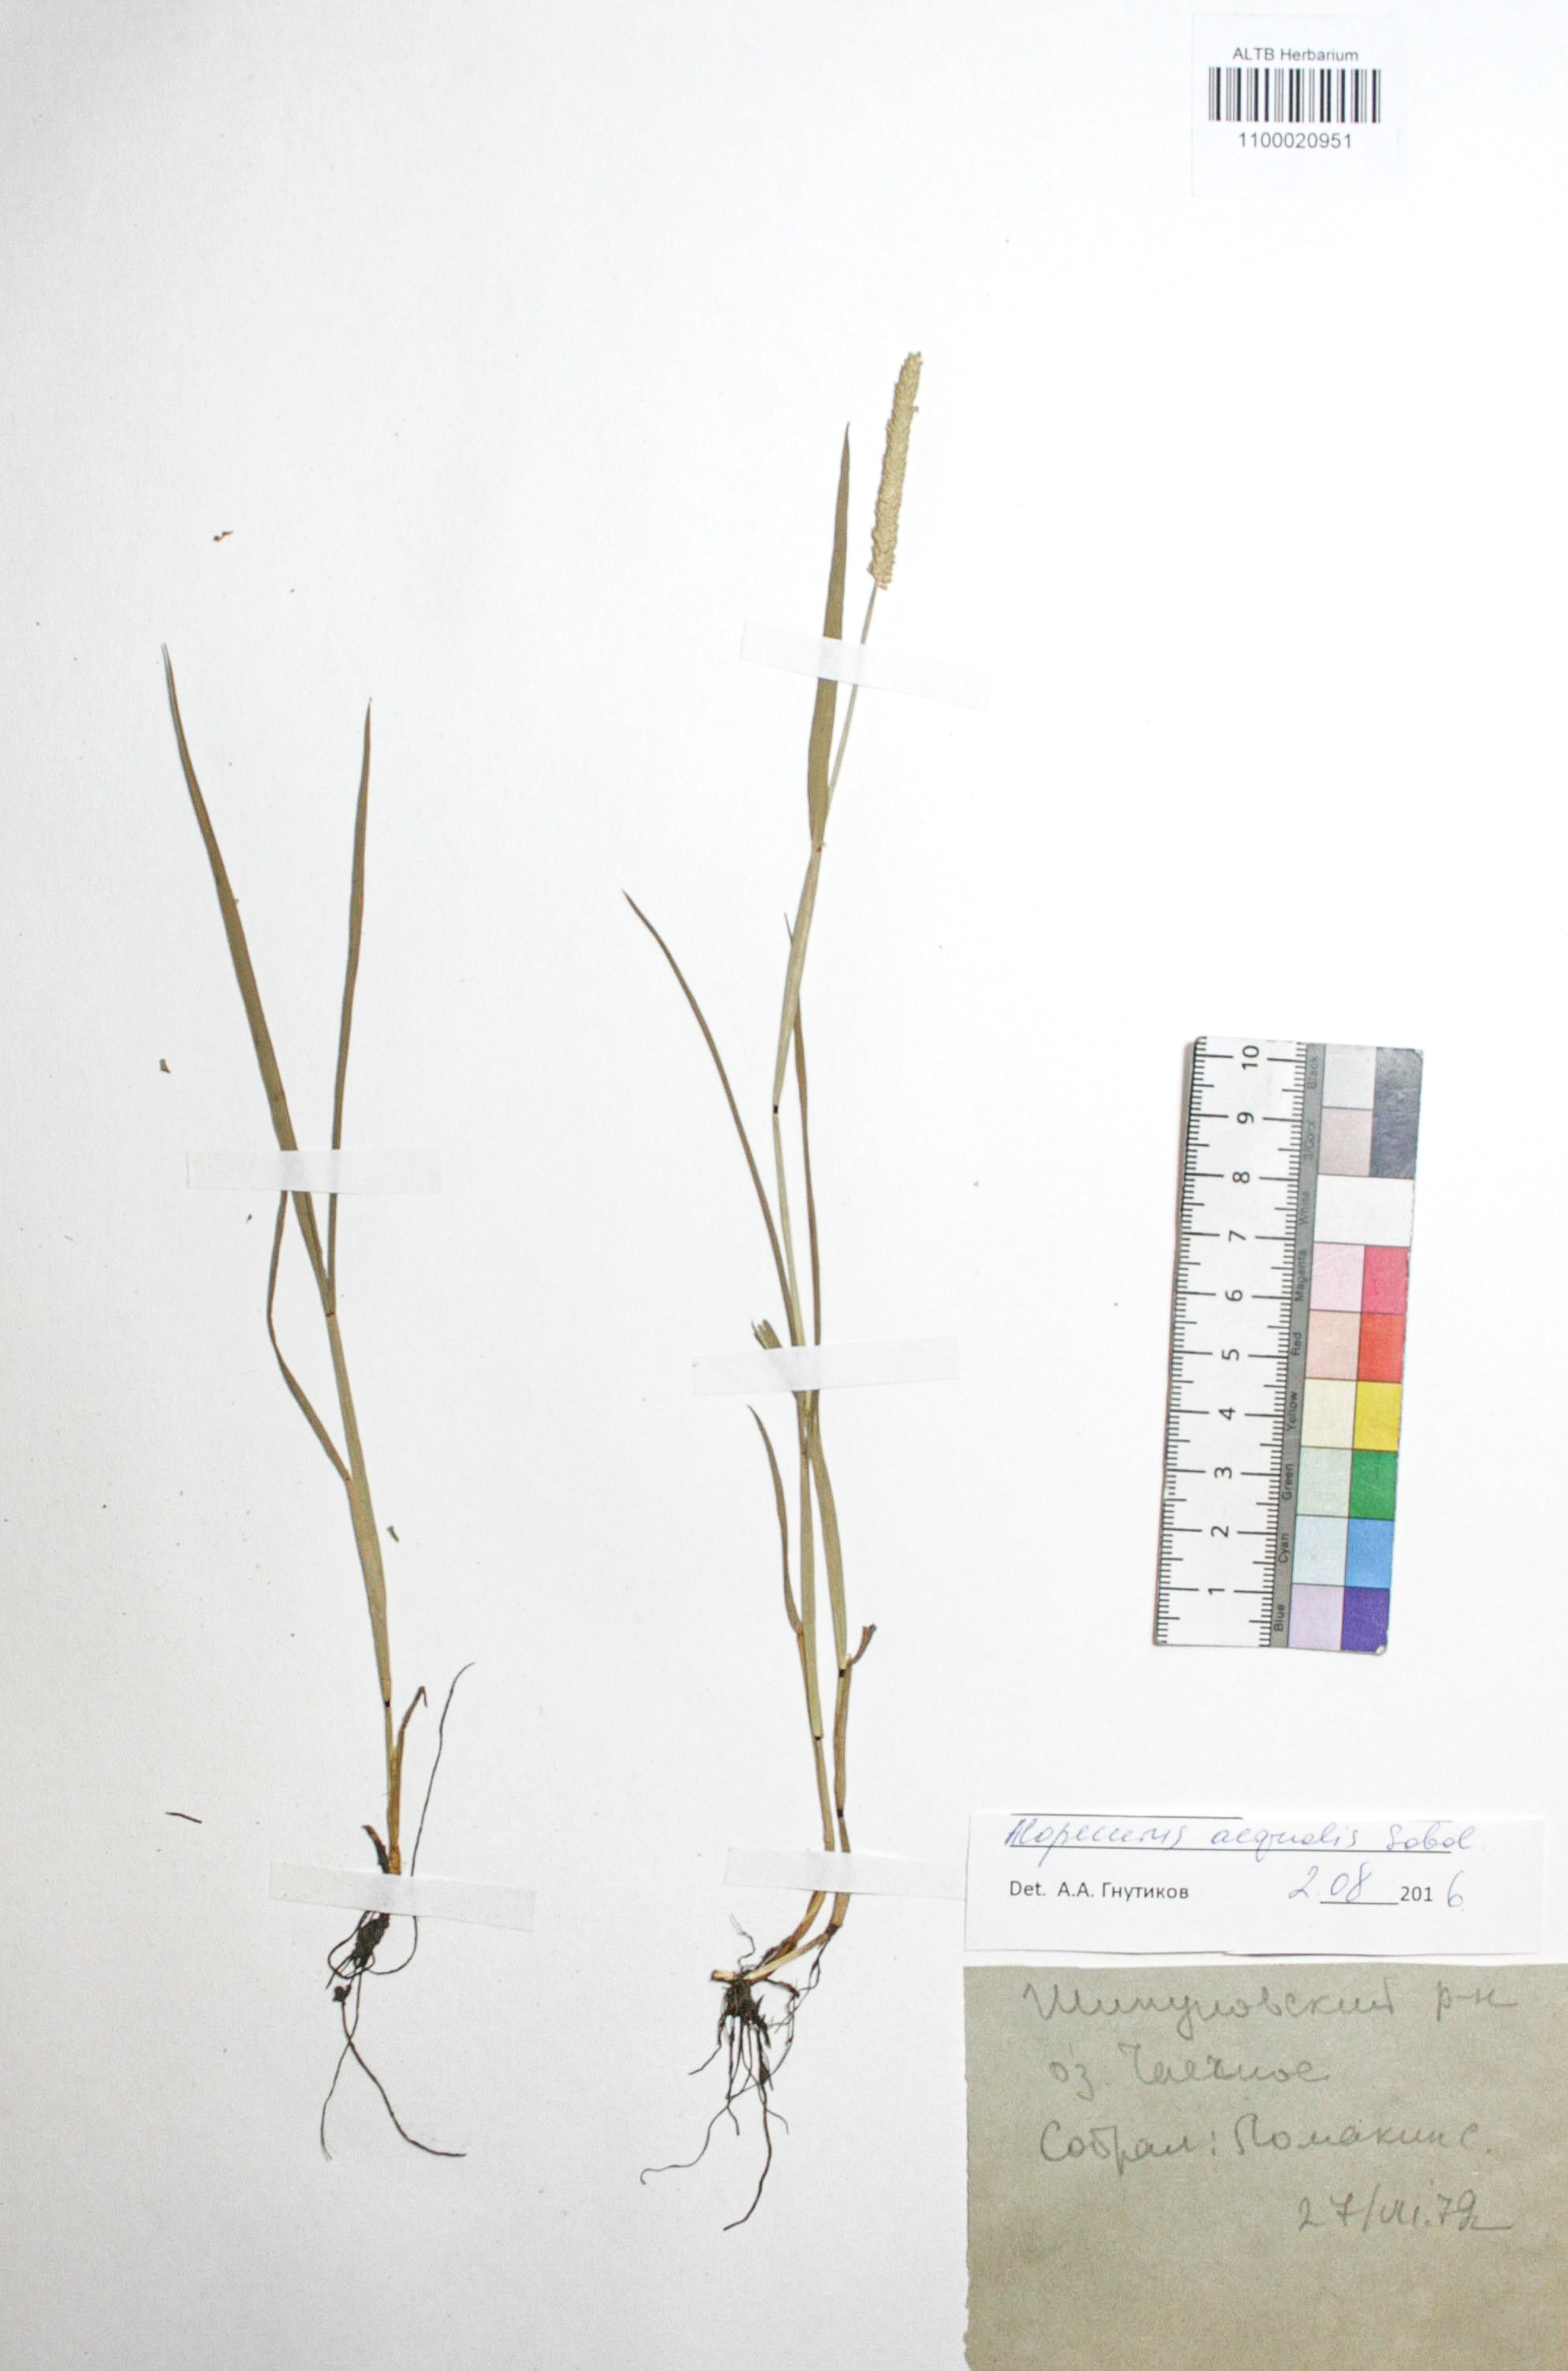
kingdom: Plantae
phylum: Tracheophyta
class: Liliopsida
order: Poales
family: Poaceae
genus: Alopecurus
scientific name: Alopecurus aequalis
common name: Orange foxtail
